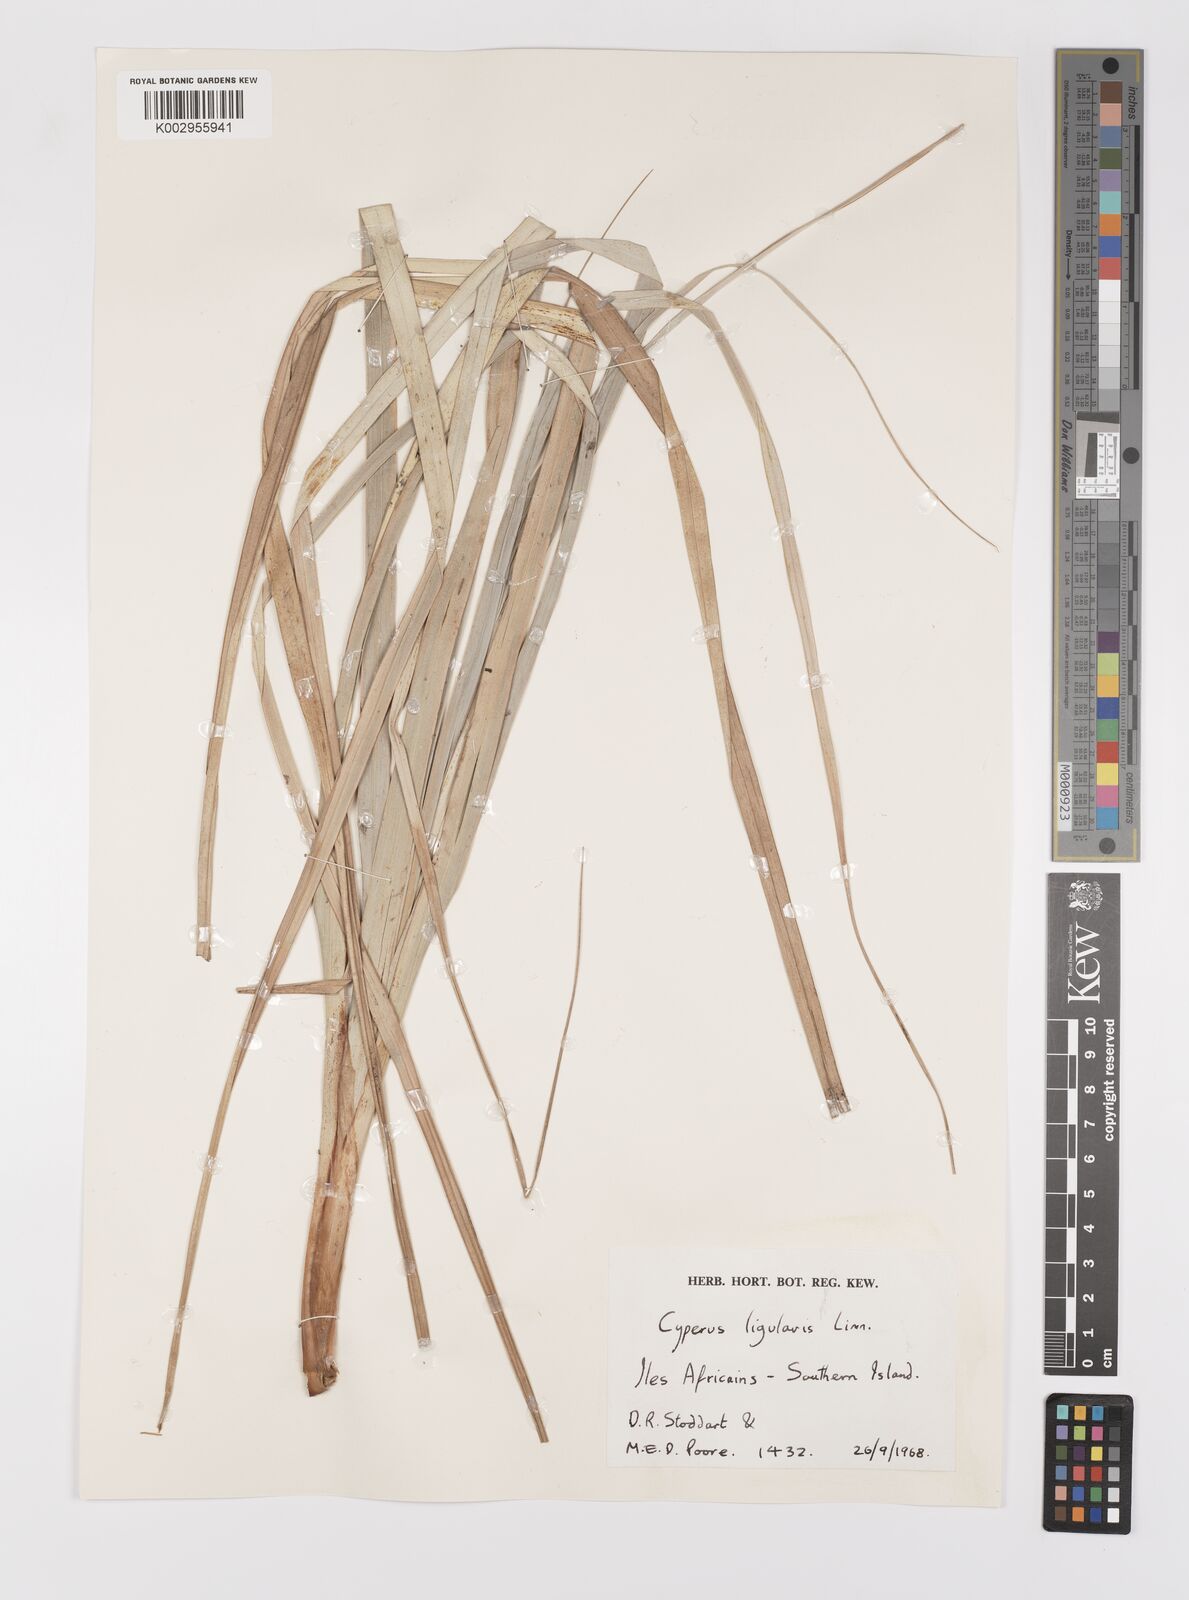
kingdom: Plantae
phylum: Tracheophyta
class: Liliopsida
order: Poales
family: Cyperaceae
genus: Cyperus
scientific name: Cyperus ligularis
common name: Swamp flat sedge
